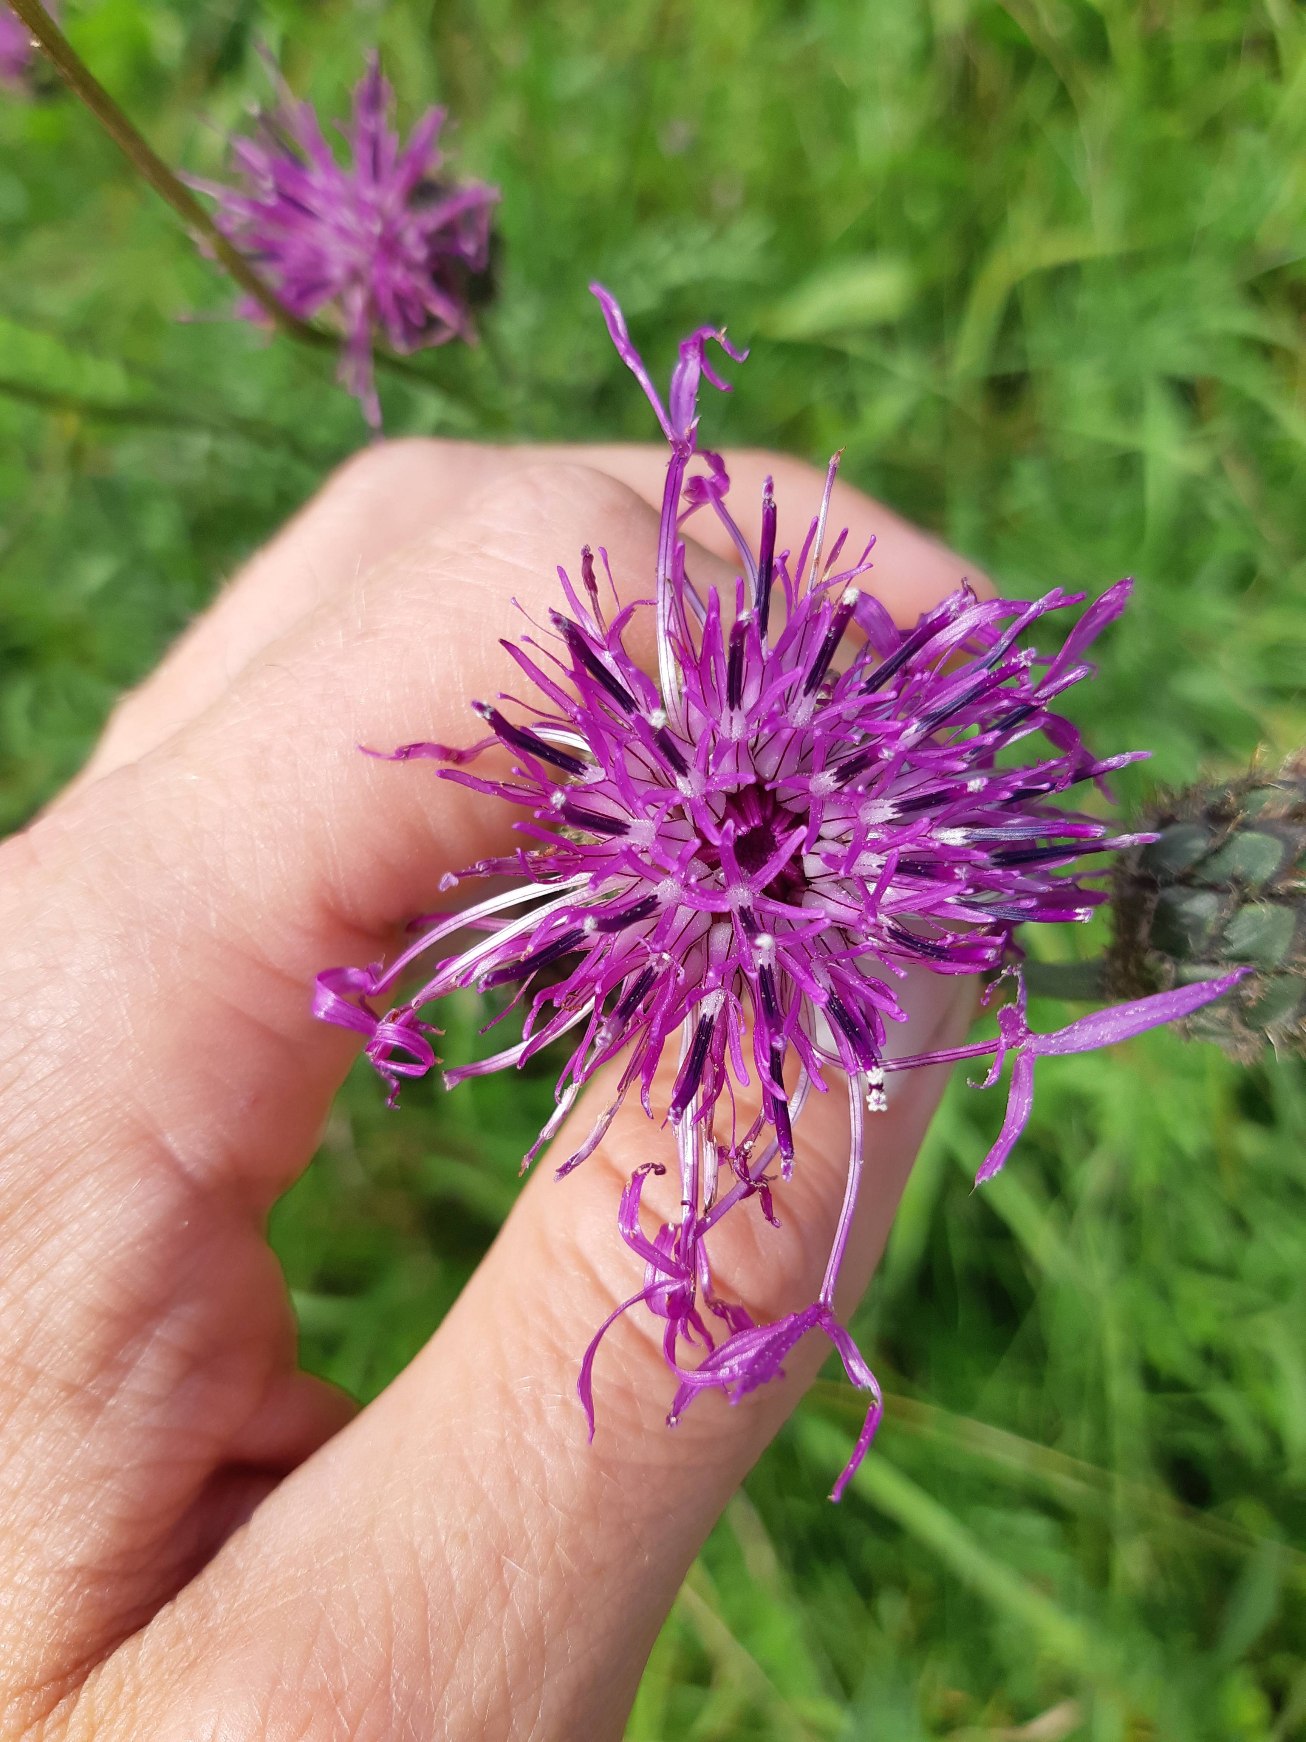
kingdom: Plantae
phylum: Tracheophyta
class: Magnoliopsida
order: Asterales
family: Asteraceae
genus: Centaurea
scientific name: Centaurea scabiosa
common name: Stor knopurt
